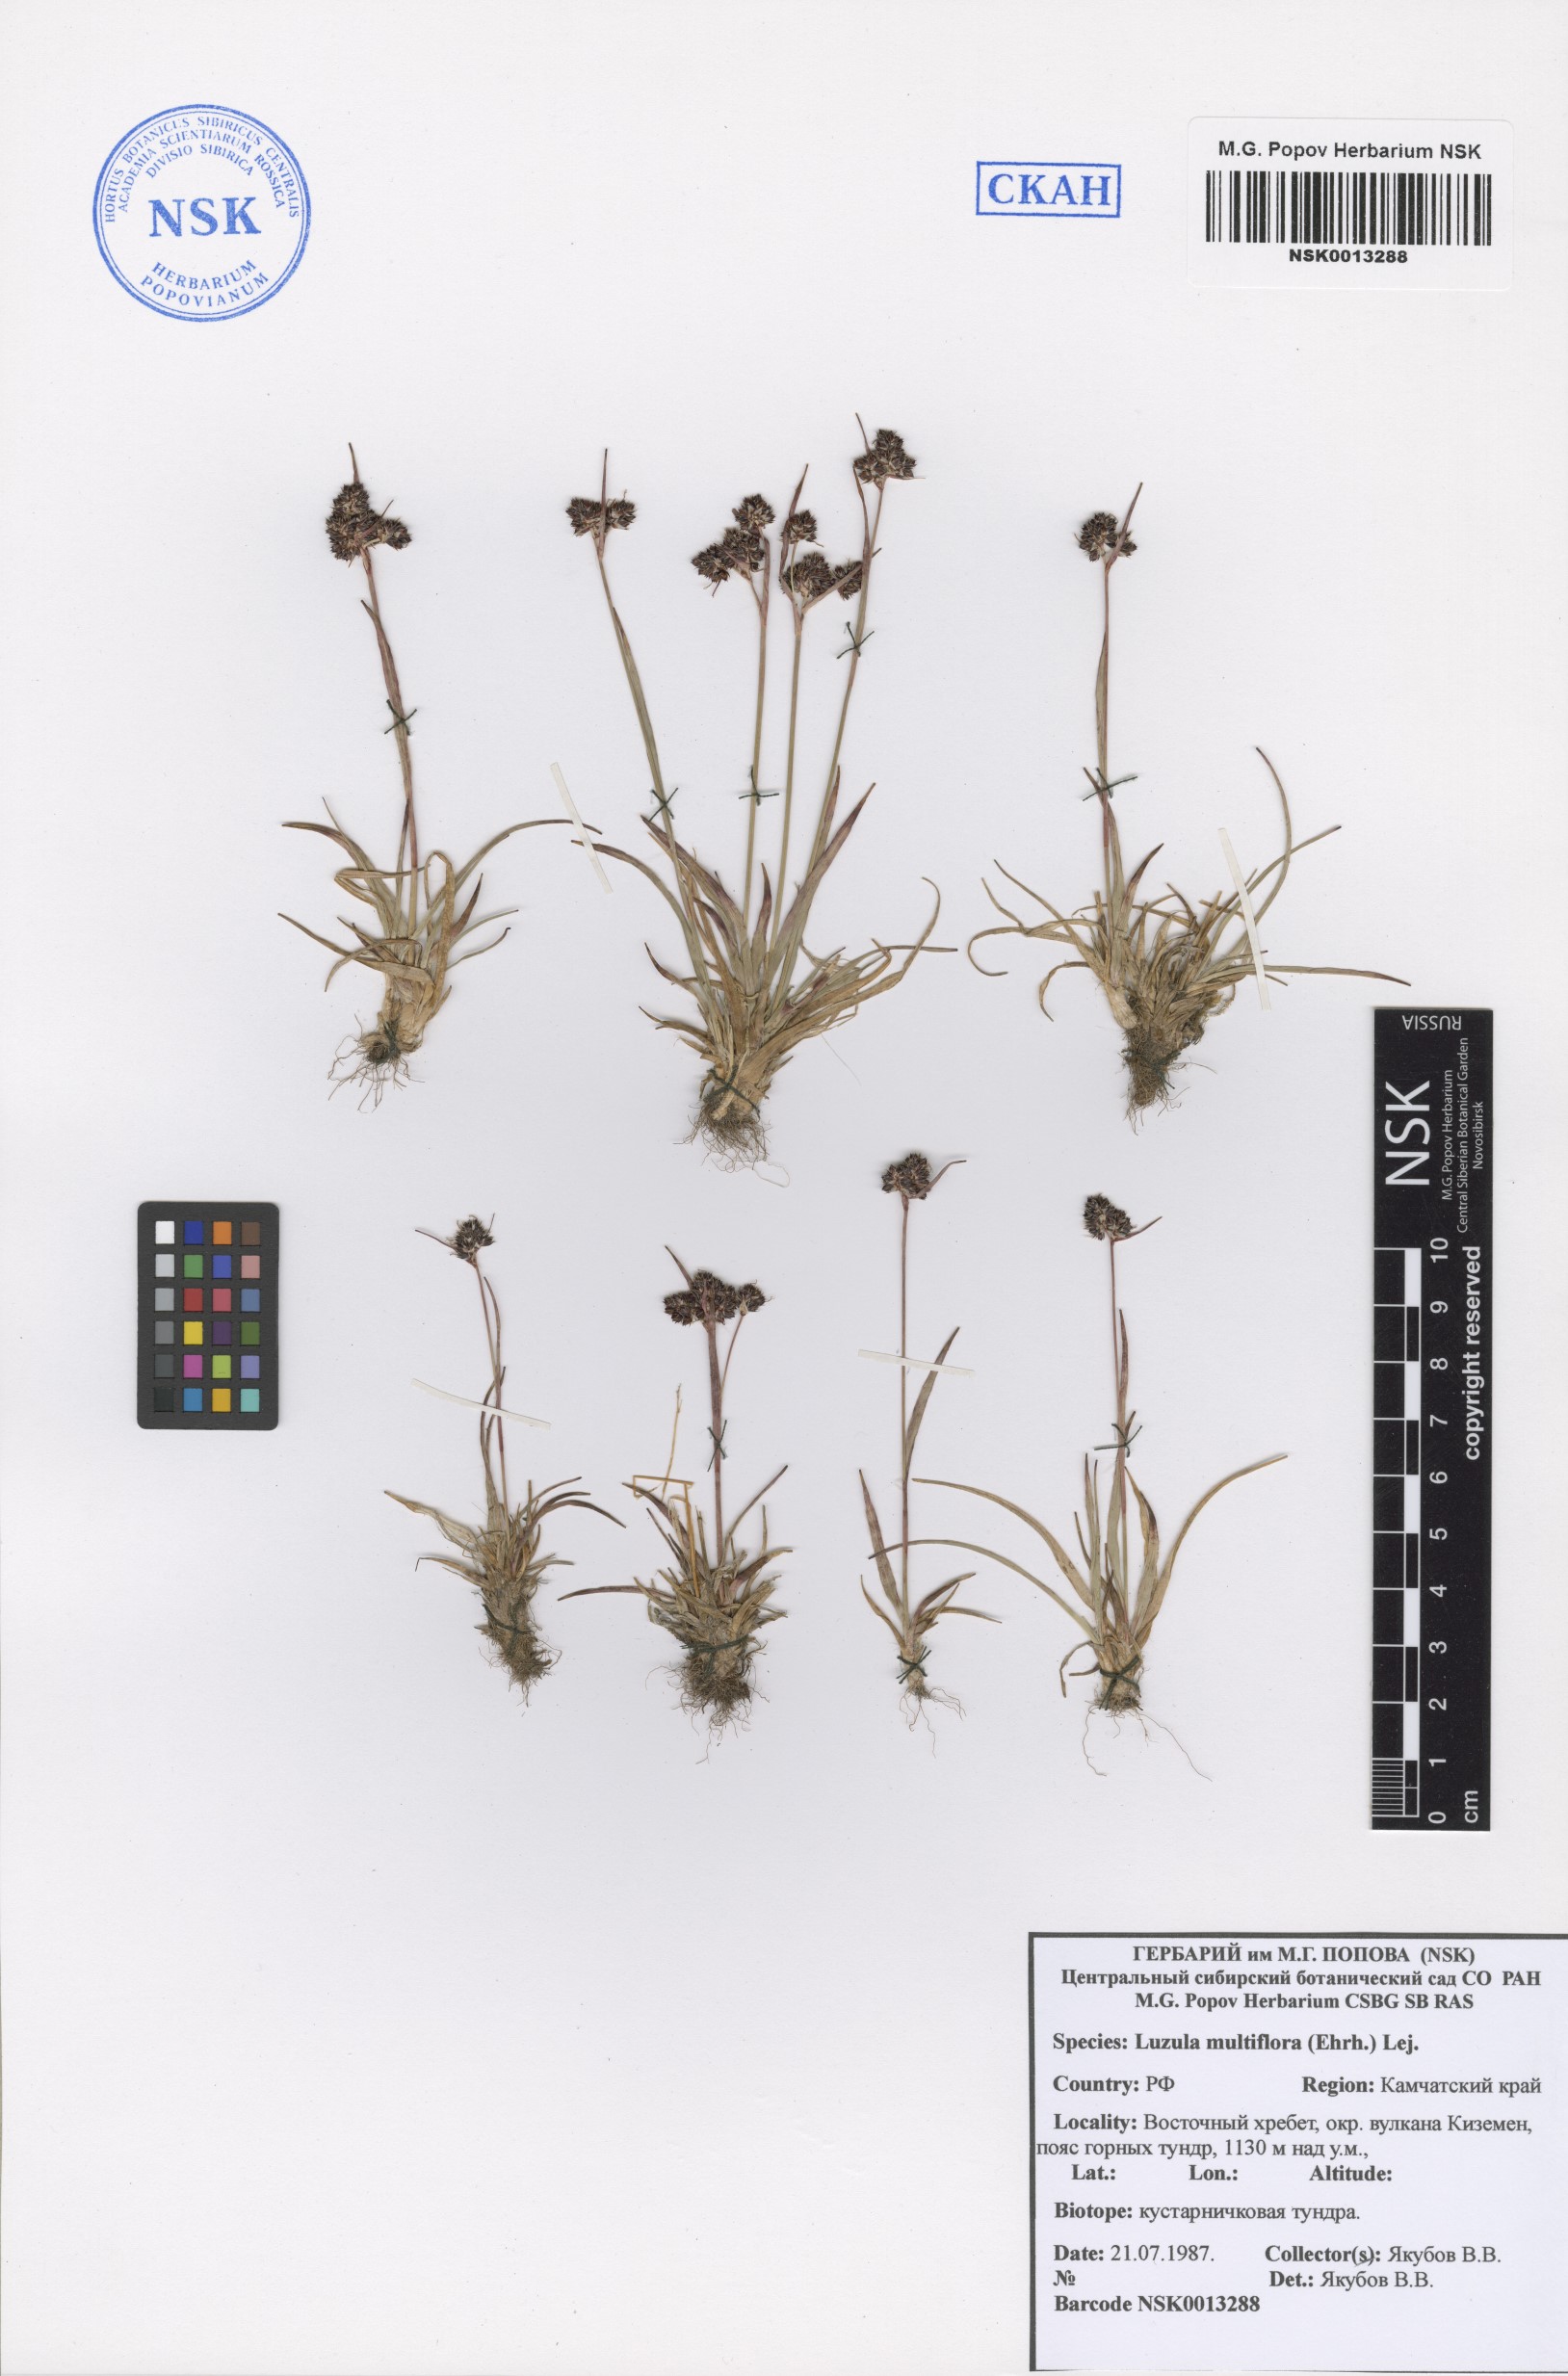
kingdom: Plantae
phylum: Tracheophyta
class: Liliopsida
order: Poales
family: Juncaceae
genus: Luzula
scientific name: Luzula multiflora
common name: Heath wood-rush
